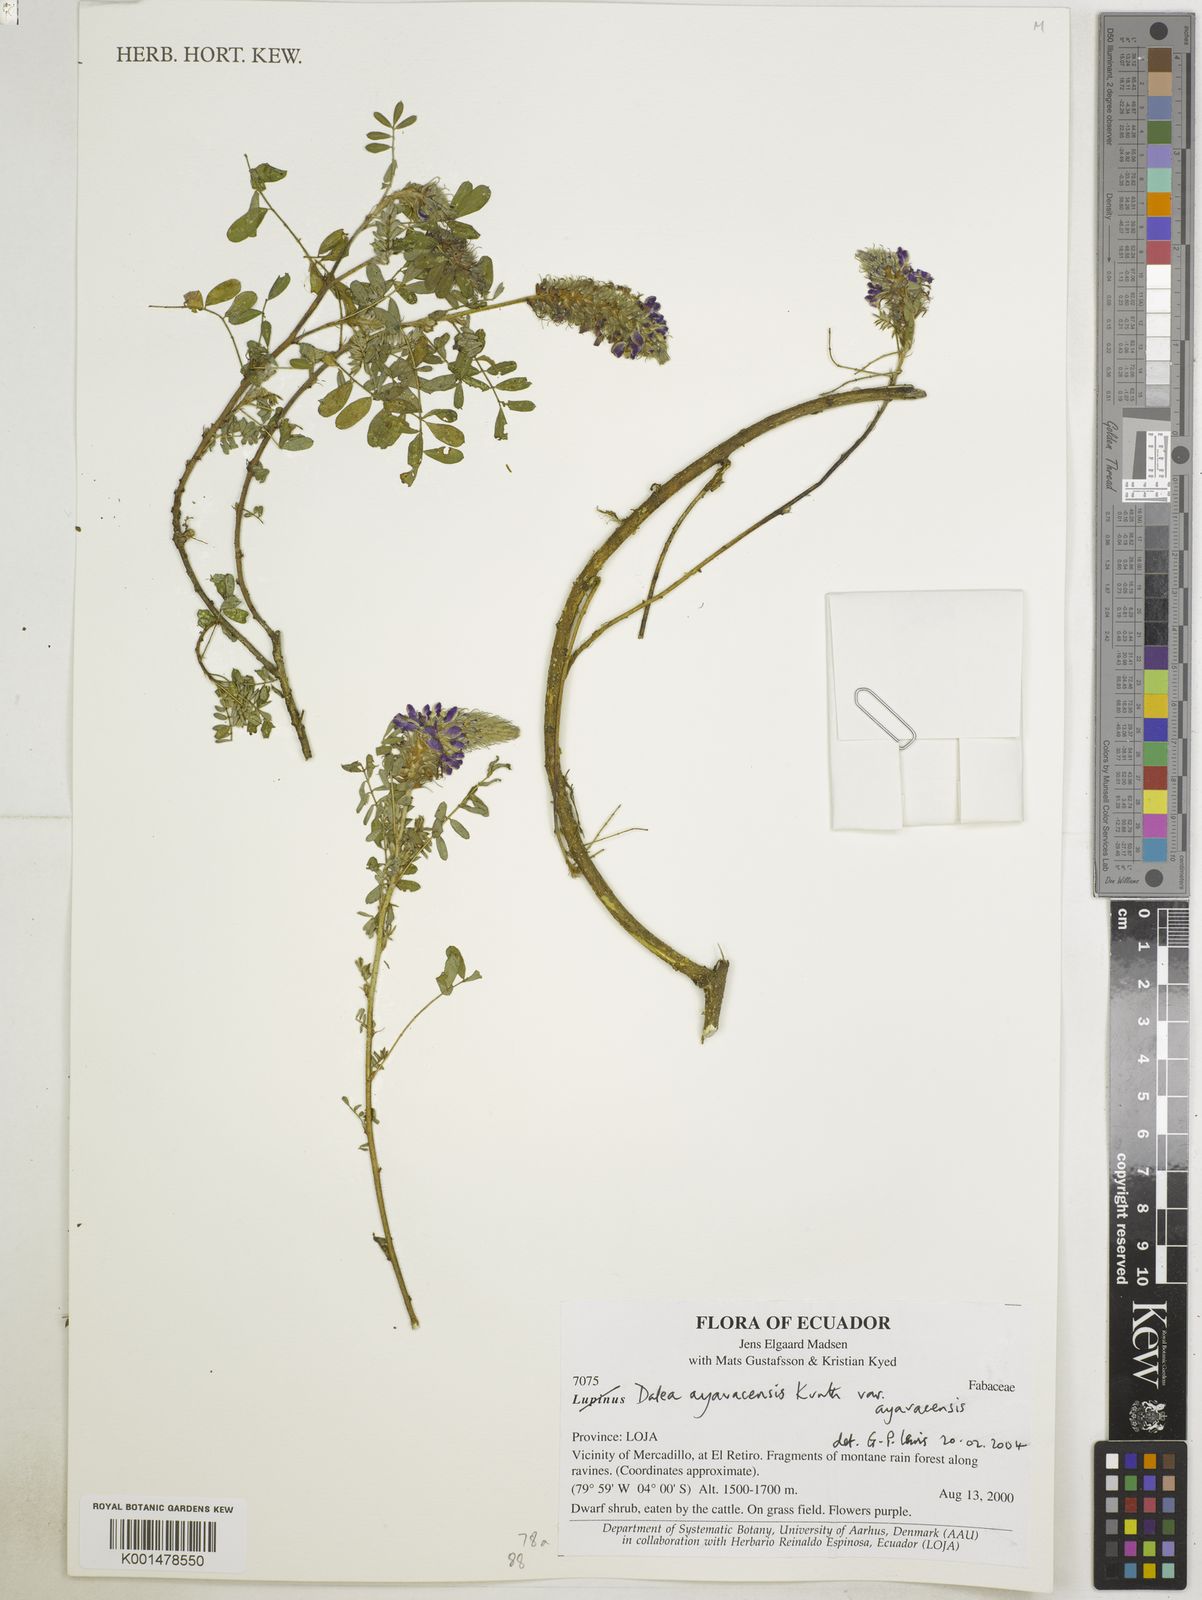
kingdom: Plantae
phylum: Tracheophyta
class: Magnoliopsida
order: Fabales
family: Fabaceae
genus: Dalea
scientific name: Dalea ayavacensis
